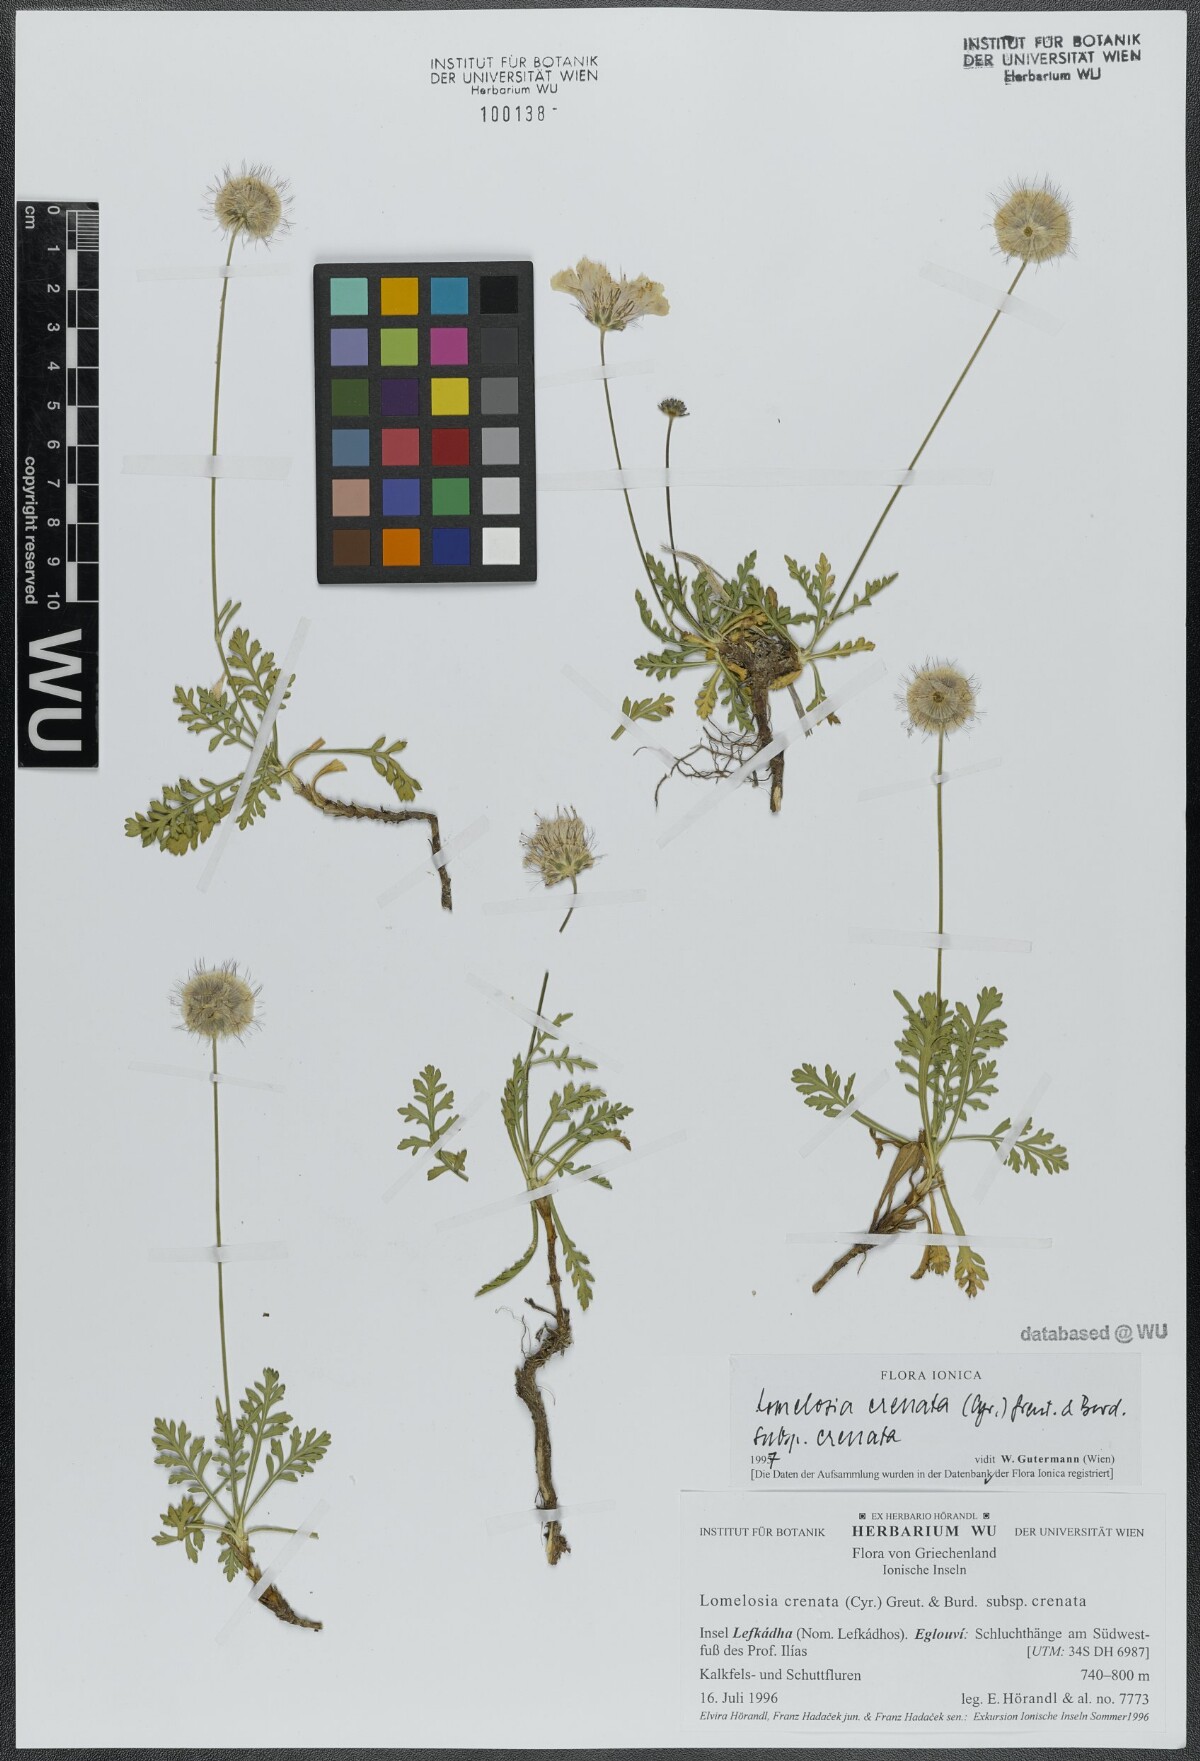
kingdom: Plantae
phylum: Tracheophyta
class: Magnoliopsida
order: Dipsacales
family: Caprifoliaceae
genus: Lomelosia
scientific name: Lomelosia crenata
